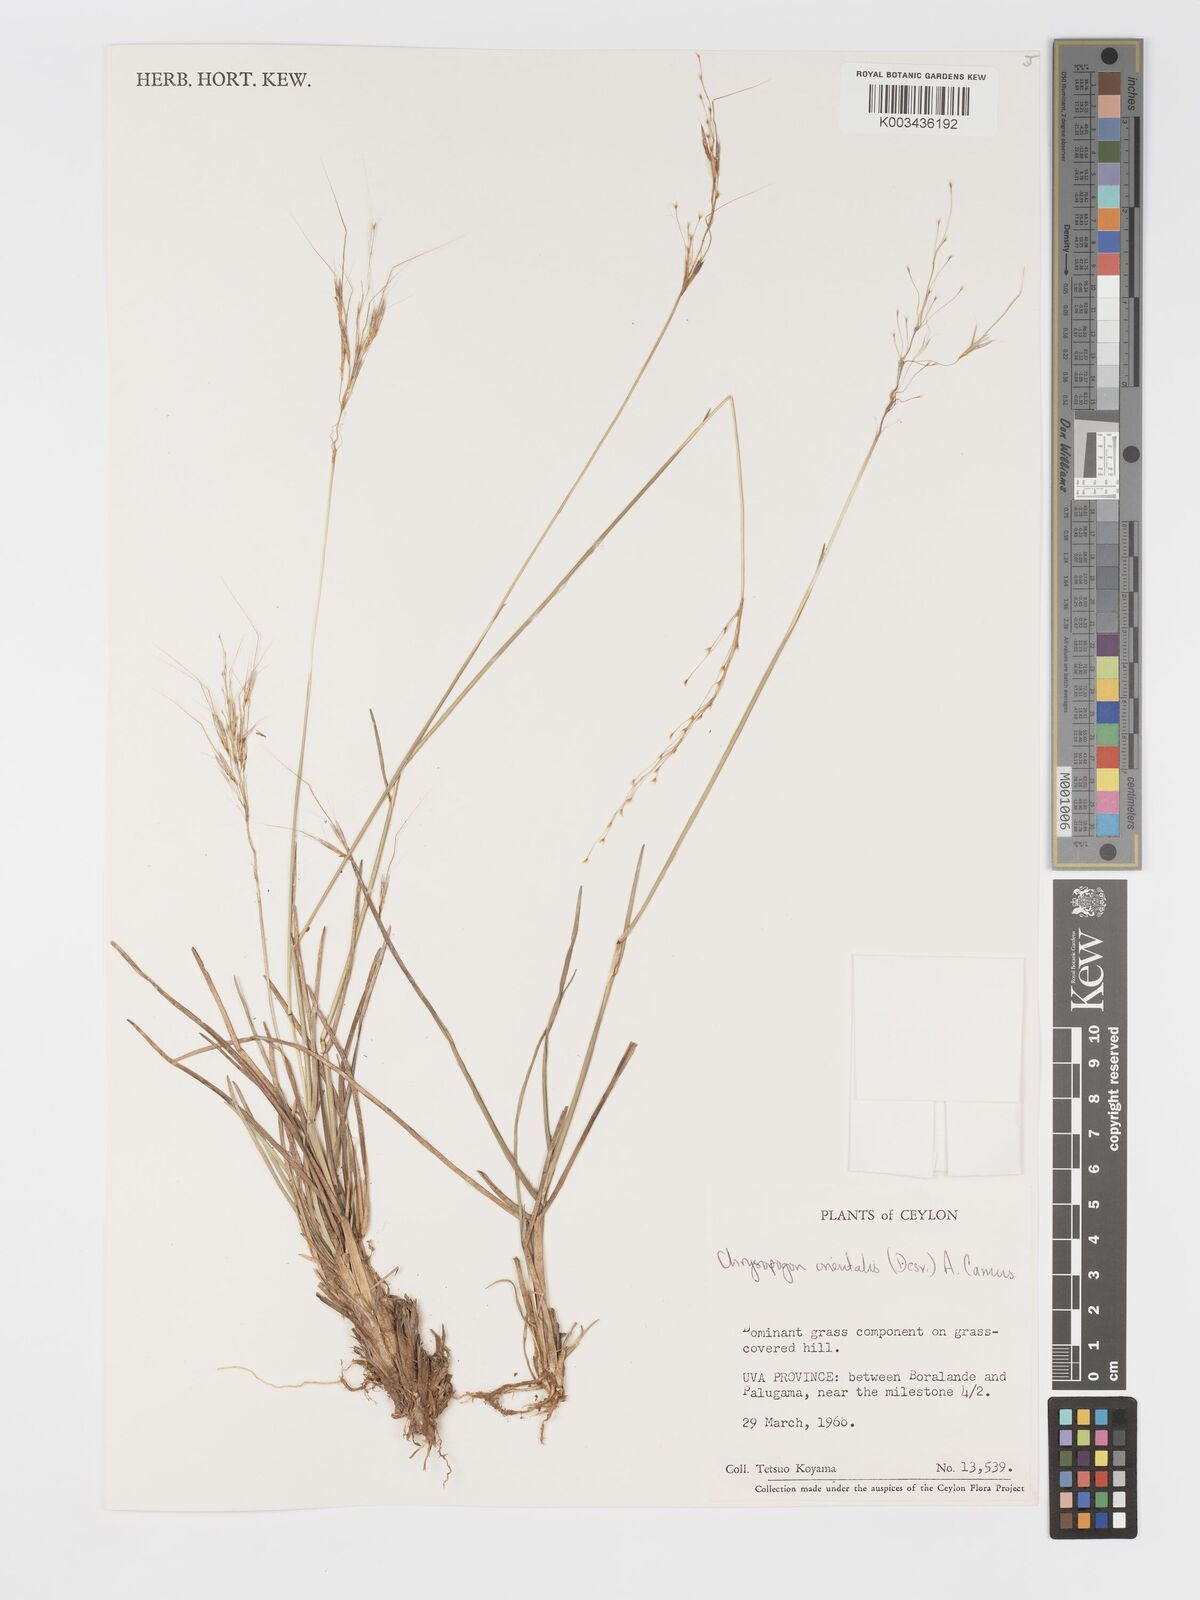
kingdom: Plantae
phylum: Tracheophyta
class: Liliopsida
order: Poales
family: Poaceae
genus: Chrysopogon
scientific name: Chrysopogon orientalis
